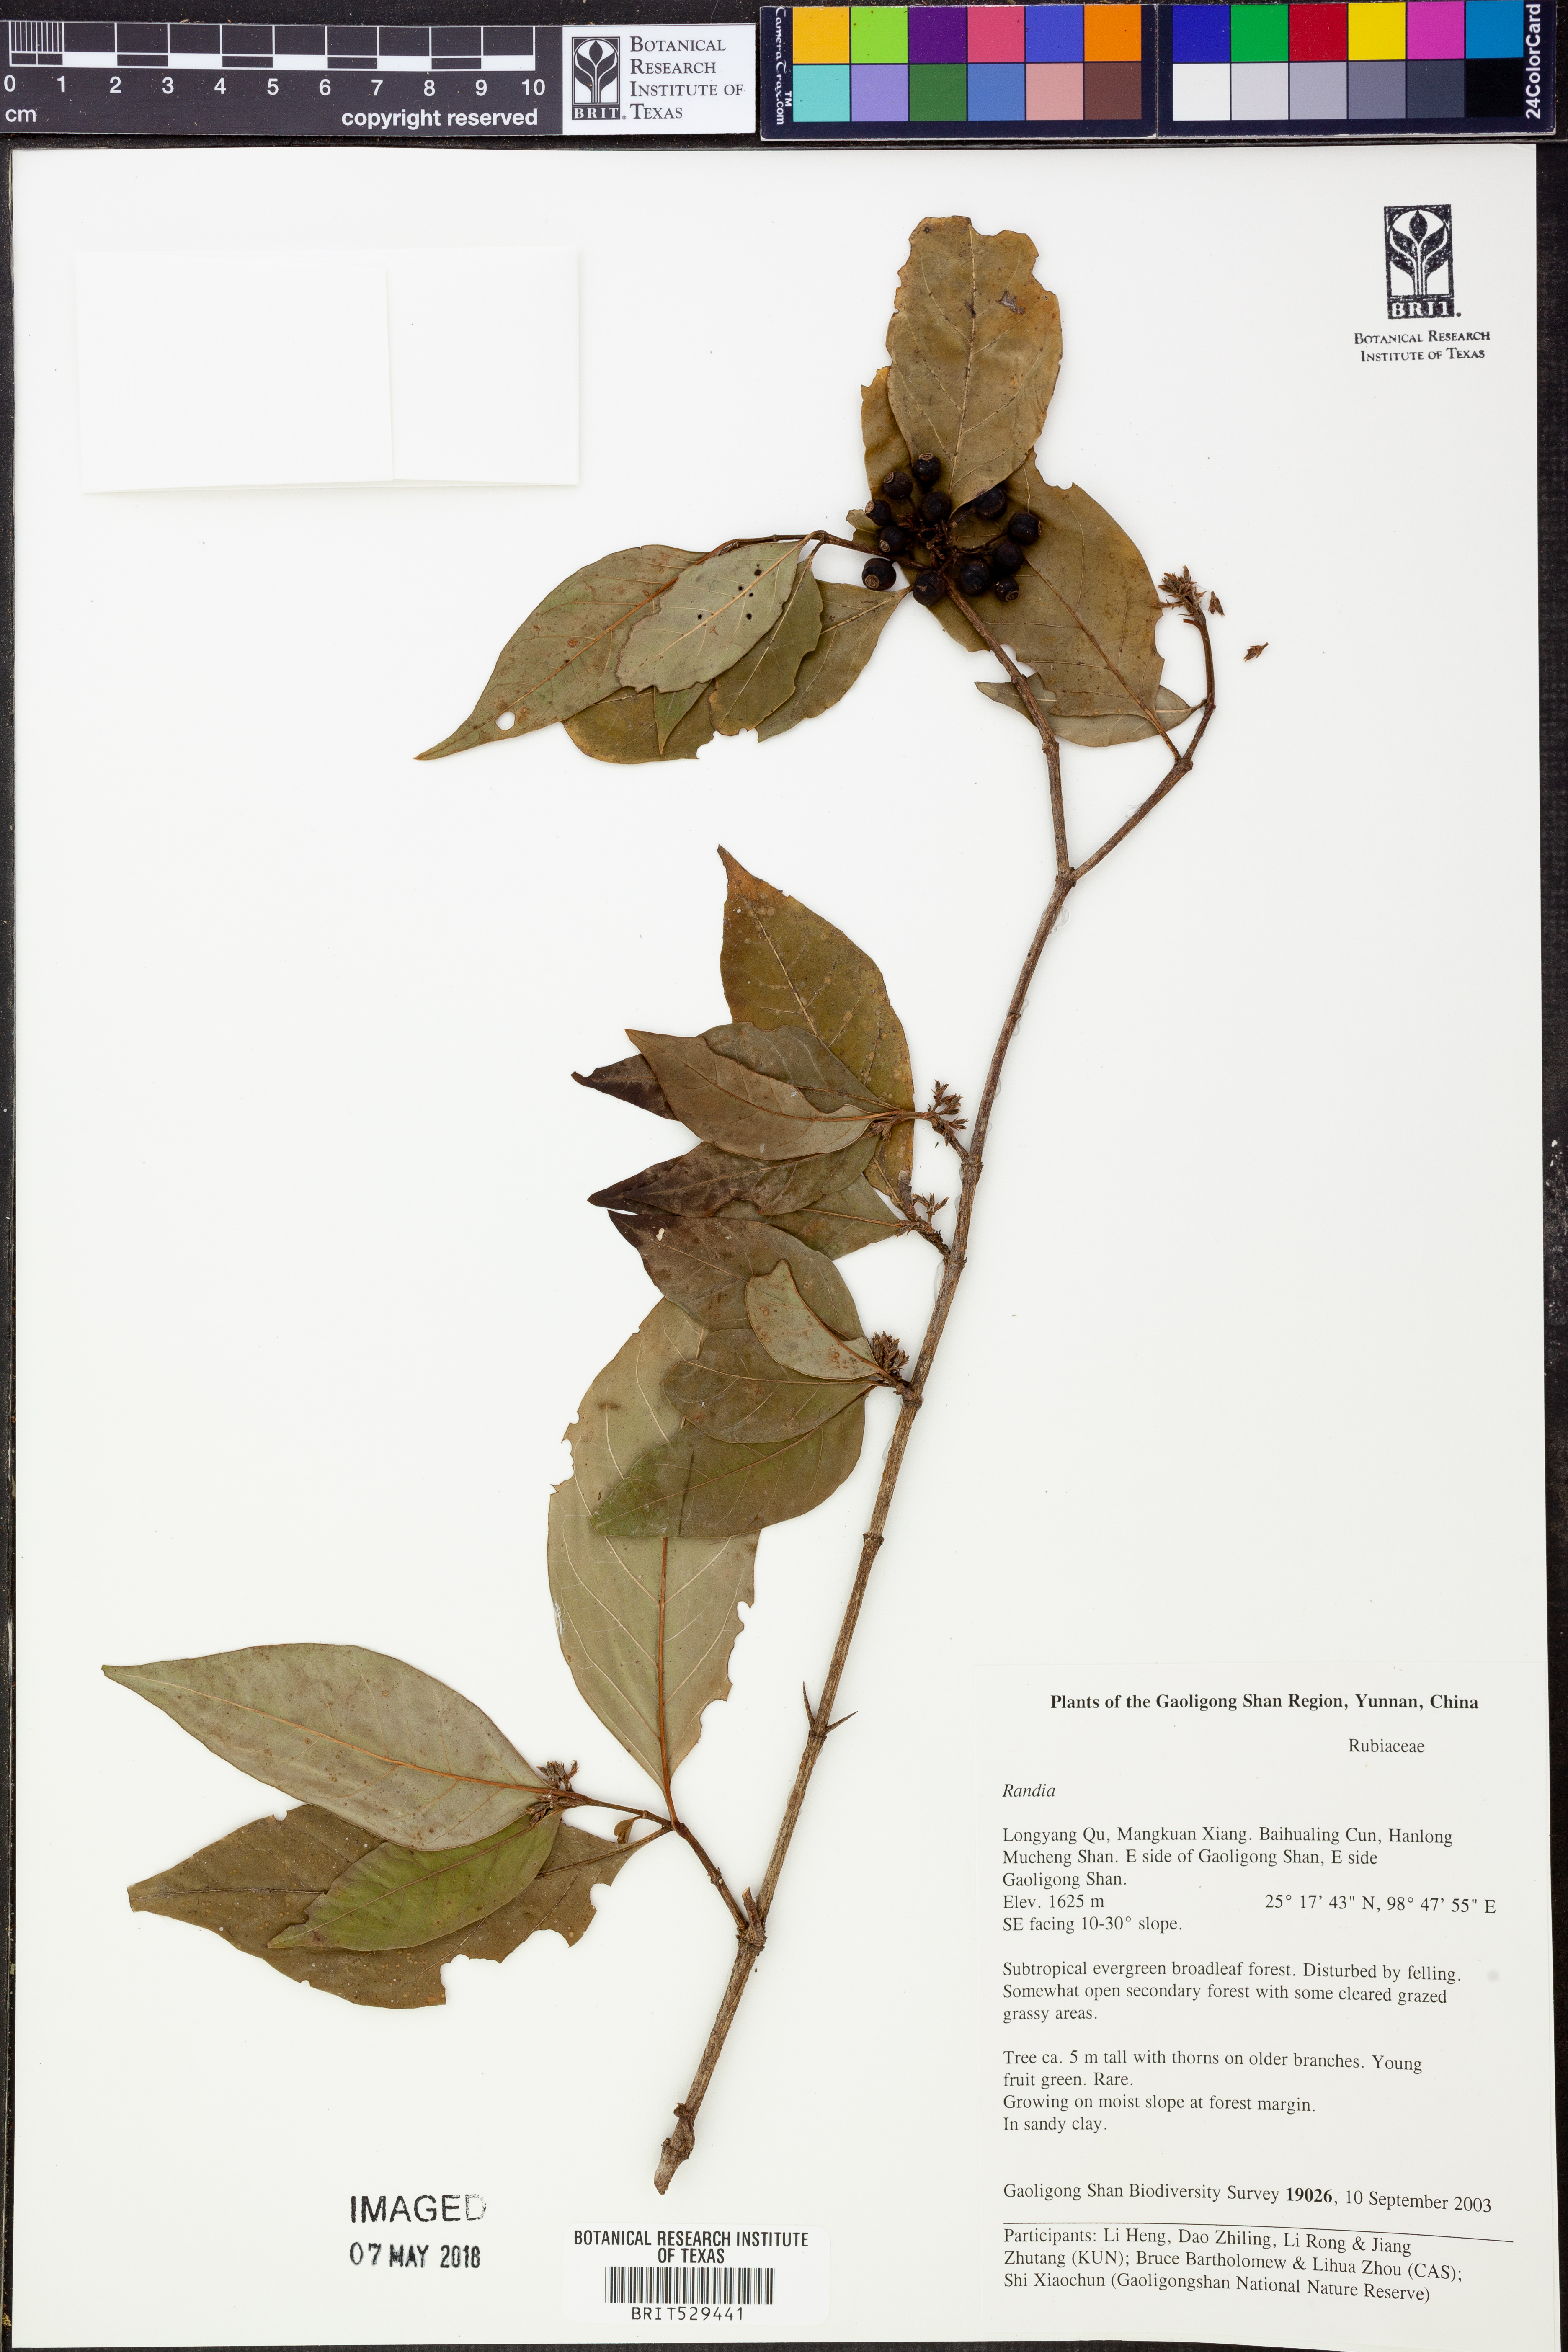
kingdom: Plantae
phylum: Tracheophyta
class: Magnoliopsida
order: Gentianales
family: Rubiaceae
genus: Randia
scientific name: Randia
